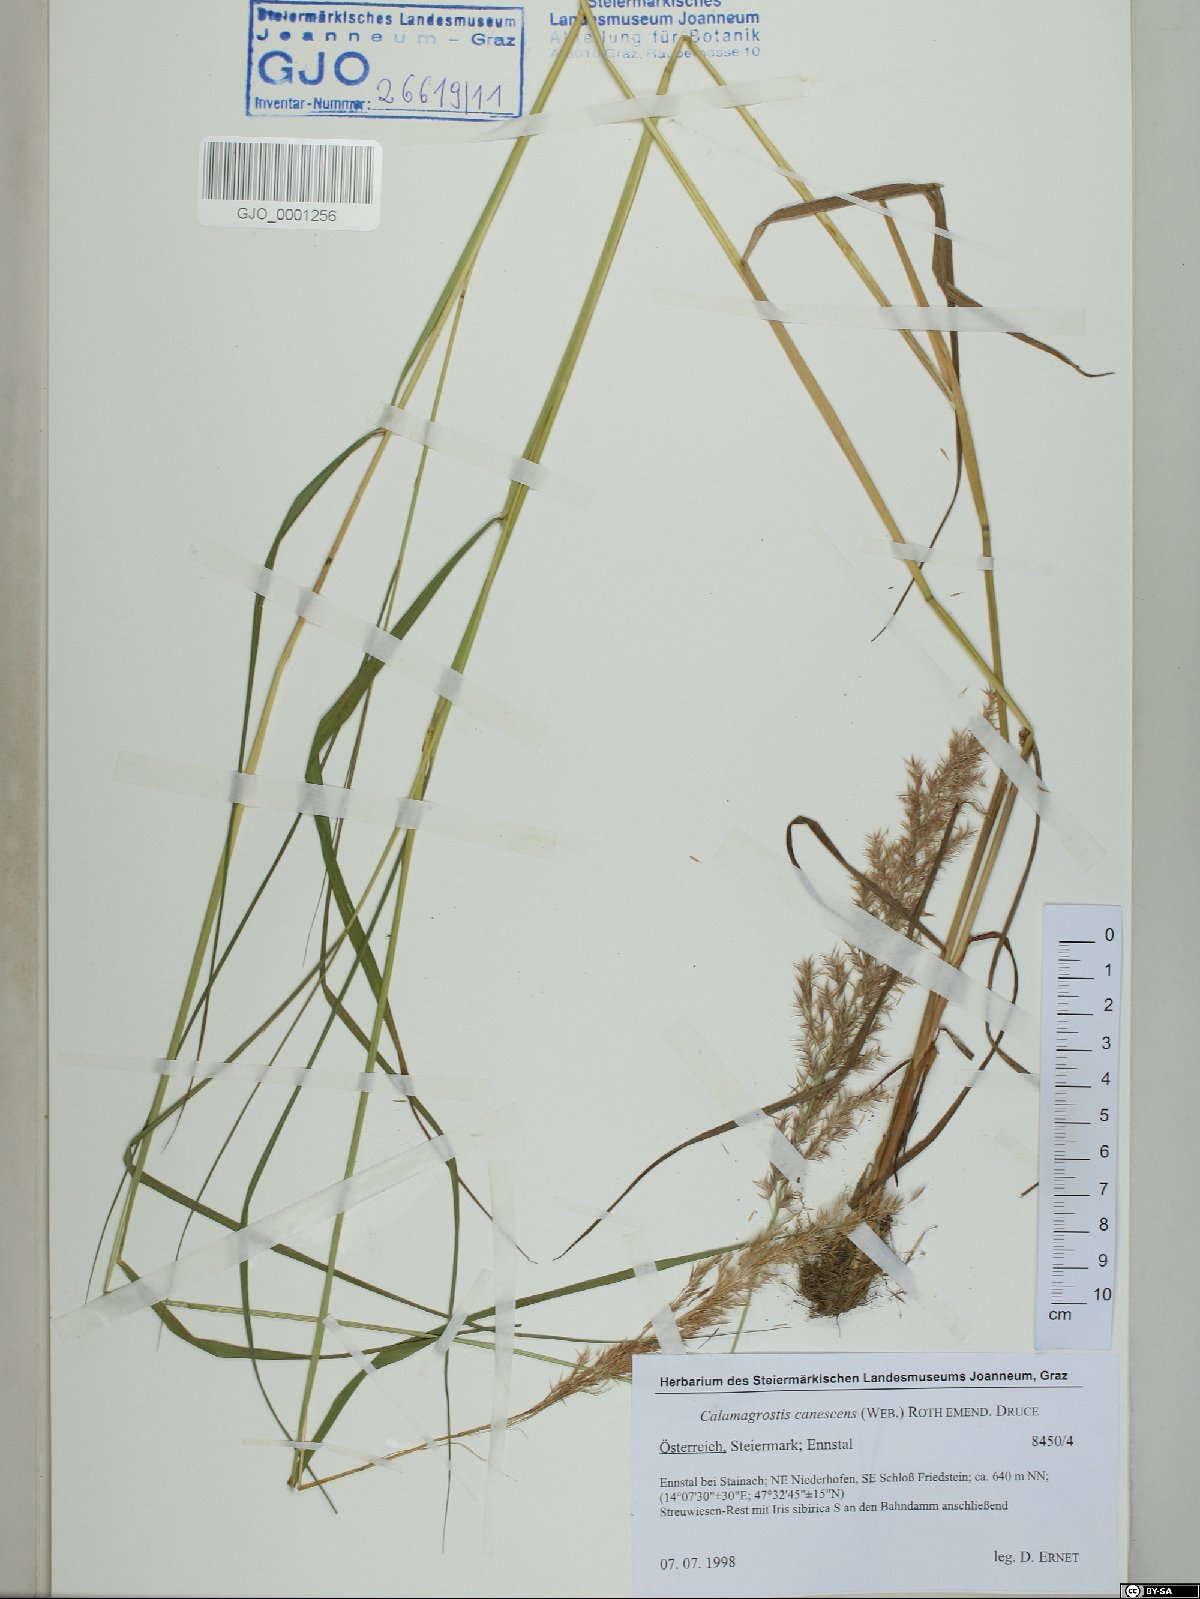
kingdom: Plantae
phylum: Tracheophyta
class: Liliopsida
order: Poales
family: Poaceae
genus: Calamagrostis
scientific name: Calamagrostis canescens
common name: Purple small-reed
